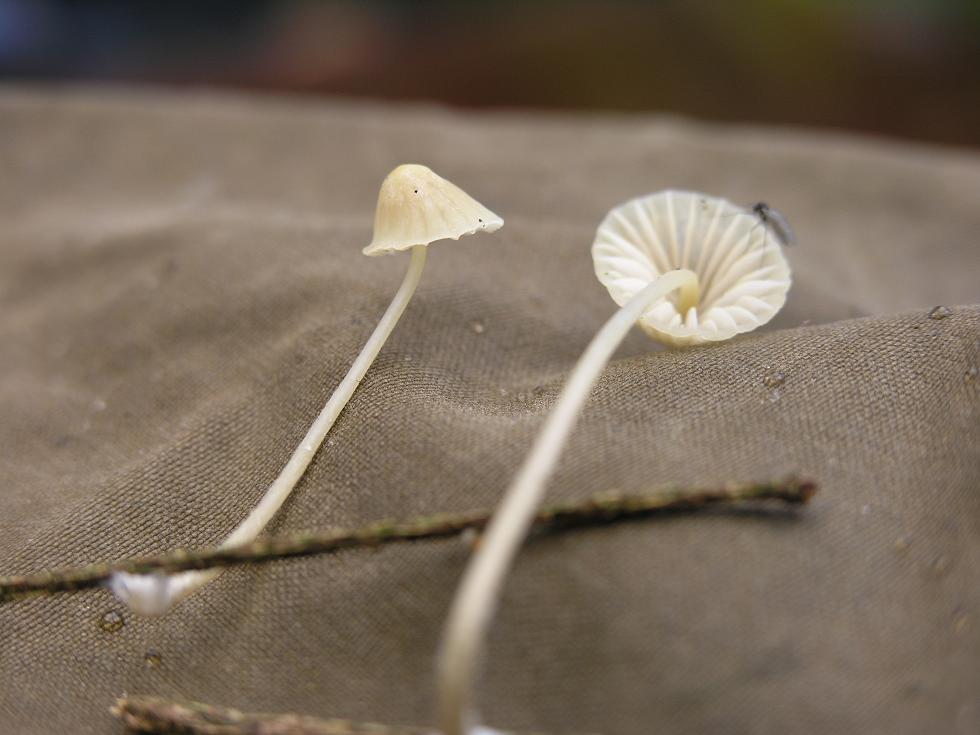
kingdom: Fungi
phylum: Basidiomycota
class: Agaricomycetes
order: Agaricales
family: Mycenaceae
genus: Mycena
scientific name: Mycena citrinomarginata
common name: gulægget huesvamp
